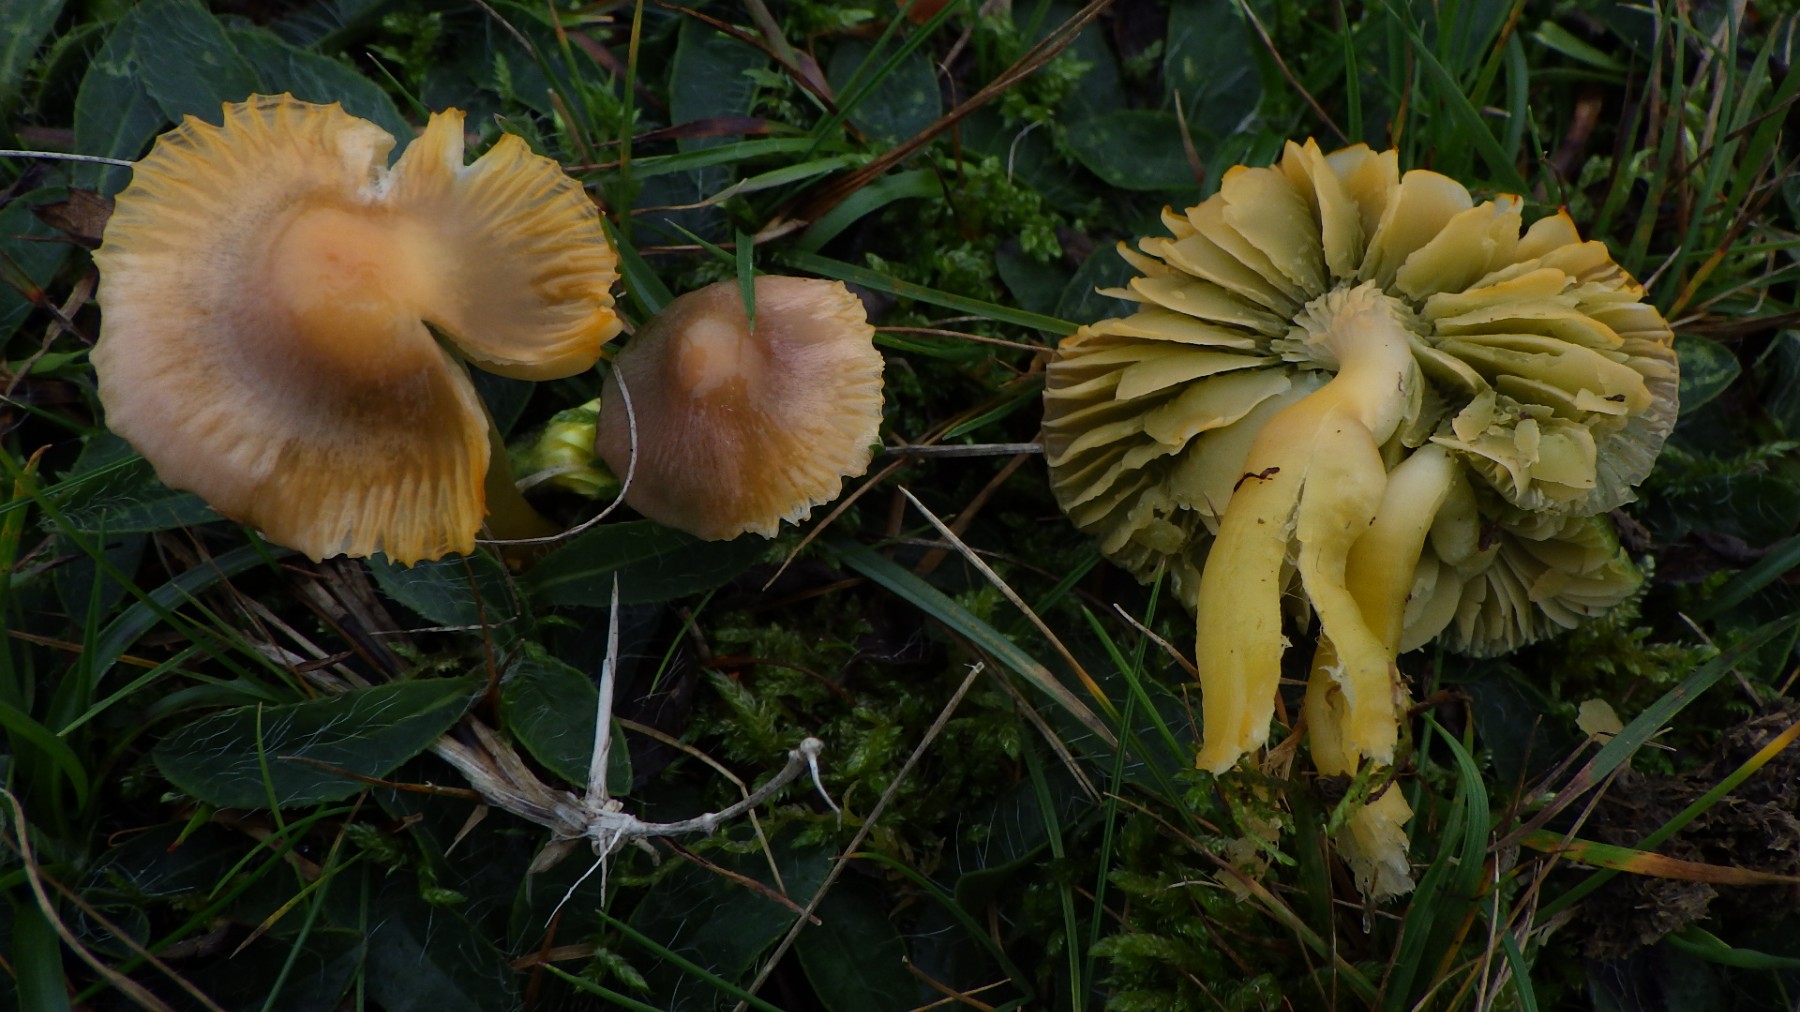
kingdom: Fungi
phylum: Basidiomycota
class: Agaricomycetes
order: Agaricales
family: Hygrophoraceae
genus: Gliophorus
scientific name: Gliophorus psittacinus
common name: papegøje-vokshat
